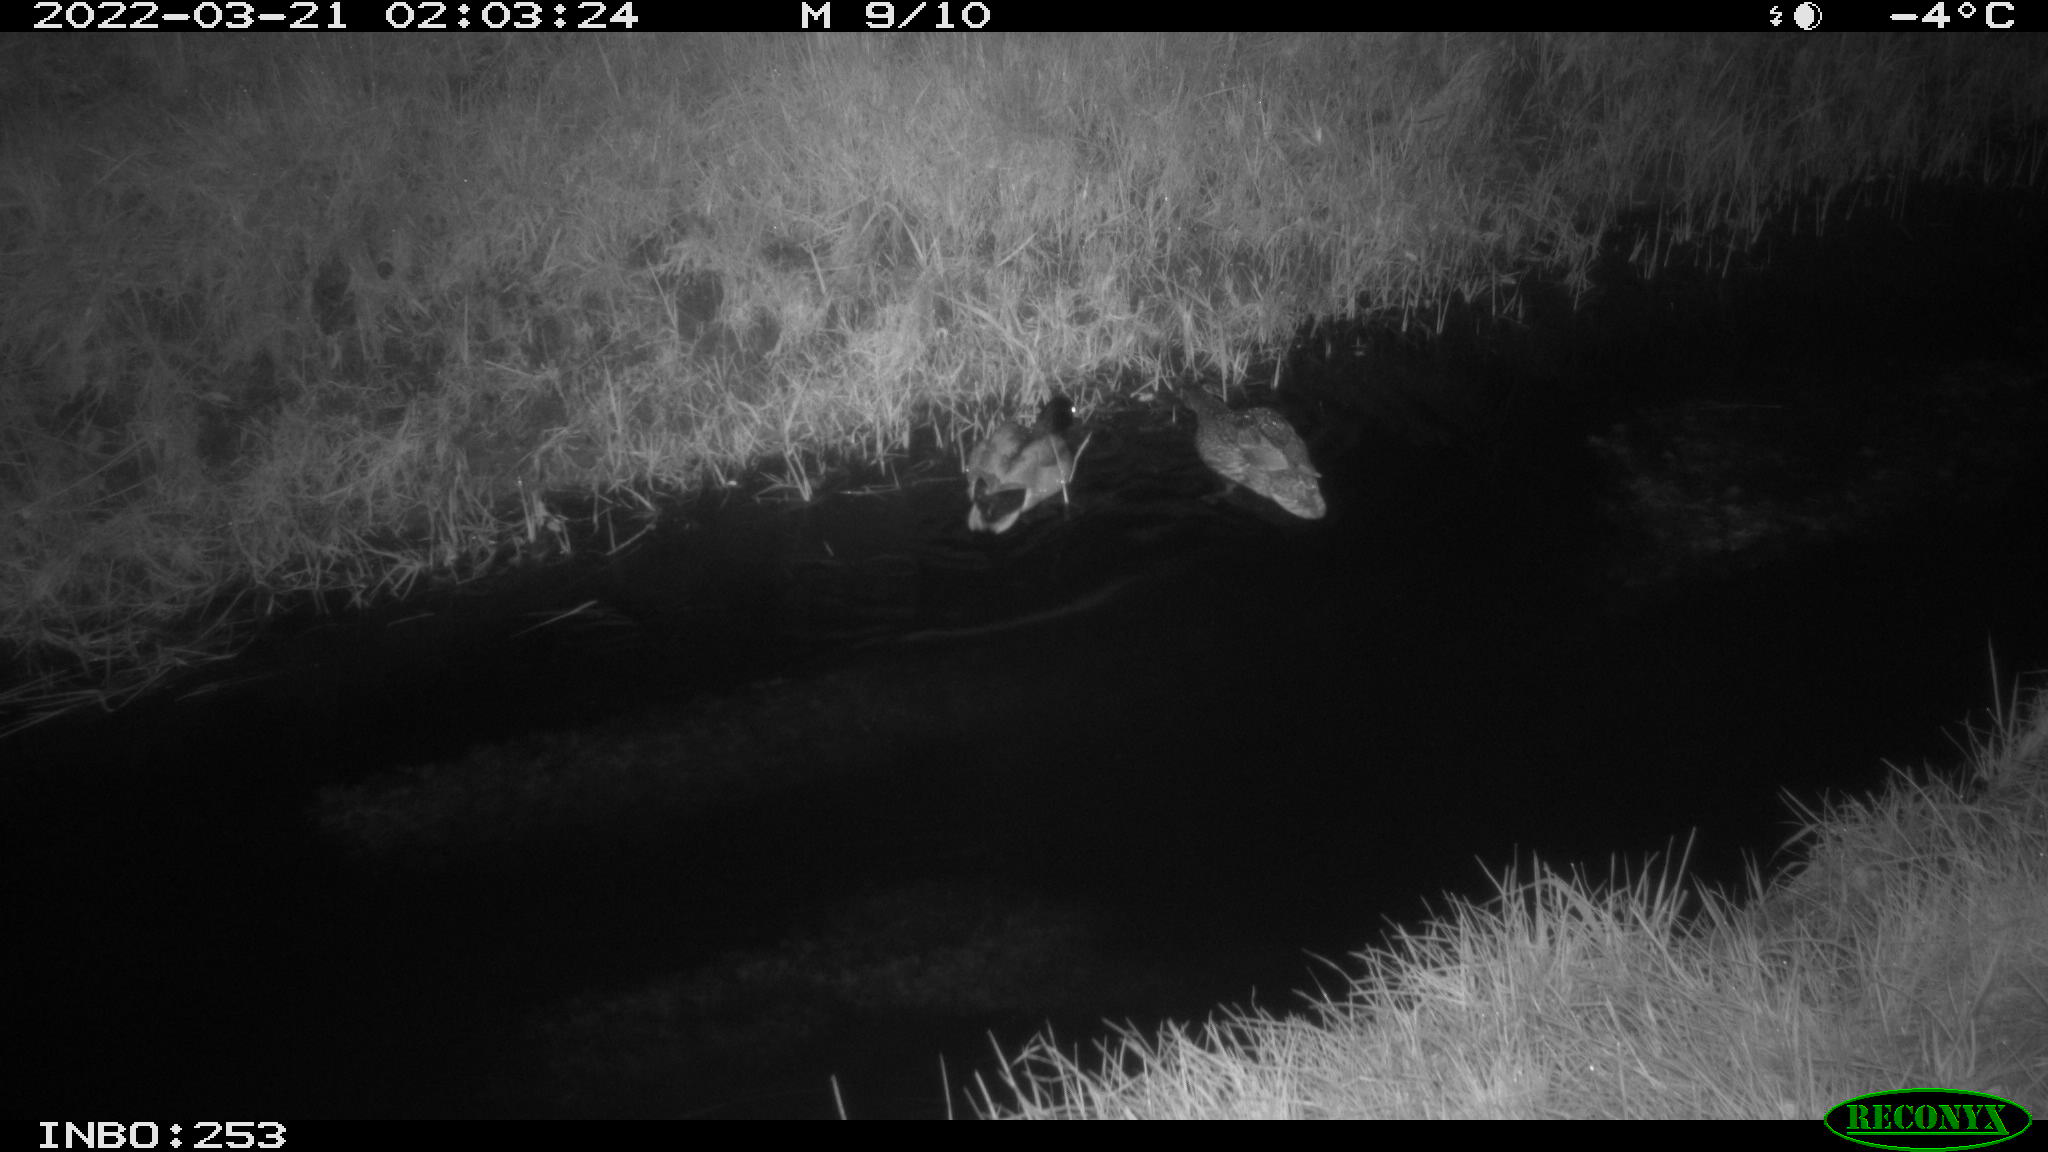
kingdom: Animalia
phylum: Chordata
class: Aves
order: Anseriformes
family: Anatidae
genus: Anas
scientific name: Anas platyrhynchos
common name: Mallard
